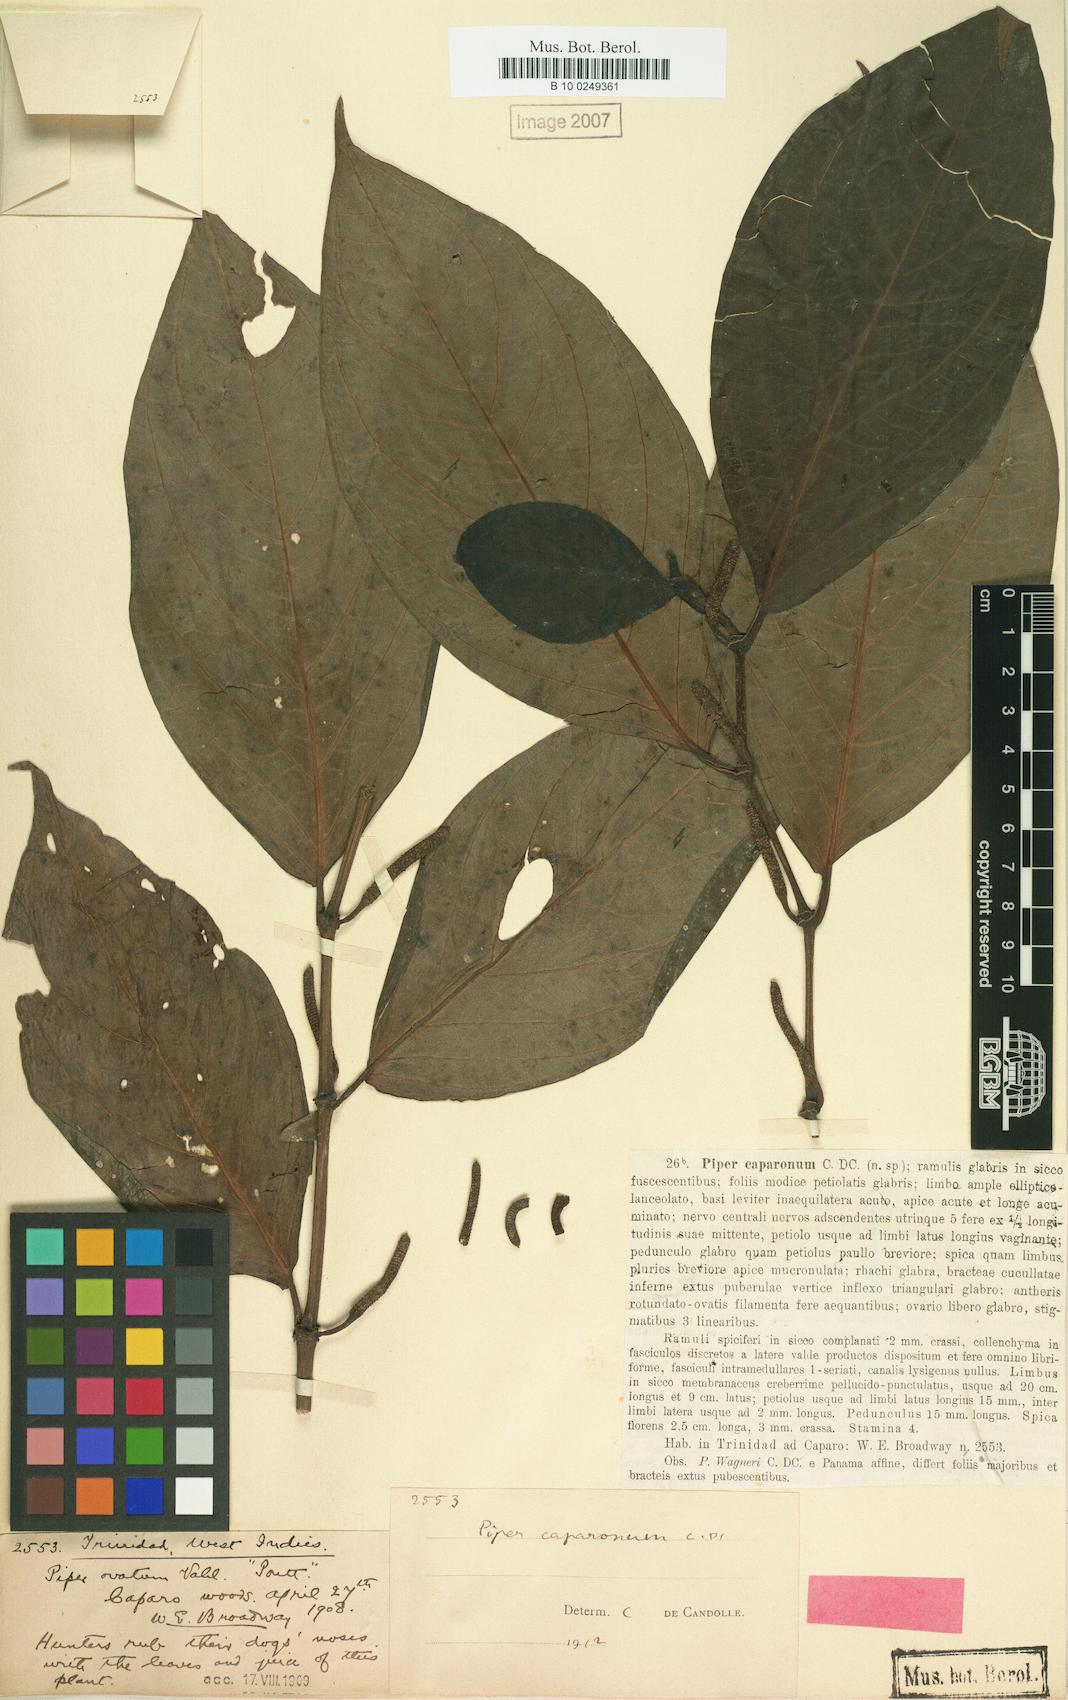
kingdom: Plantae
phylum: Tracheophyta
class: Magnoliopsida
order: Piperales
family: Piperaceae
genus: Piper
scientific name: Piper glabrescens
